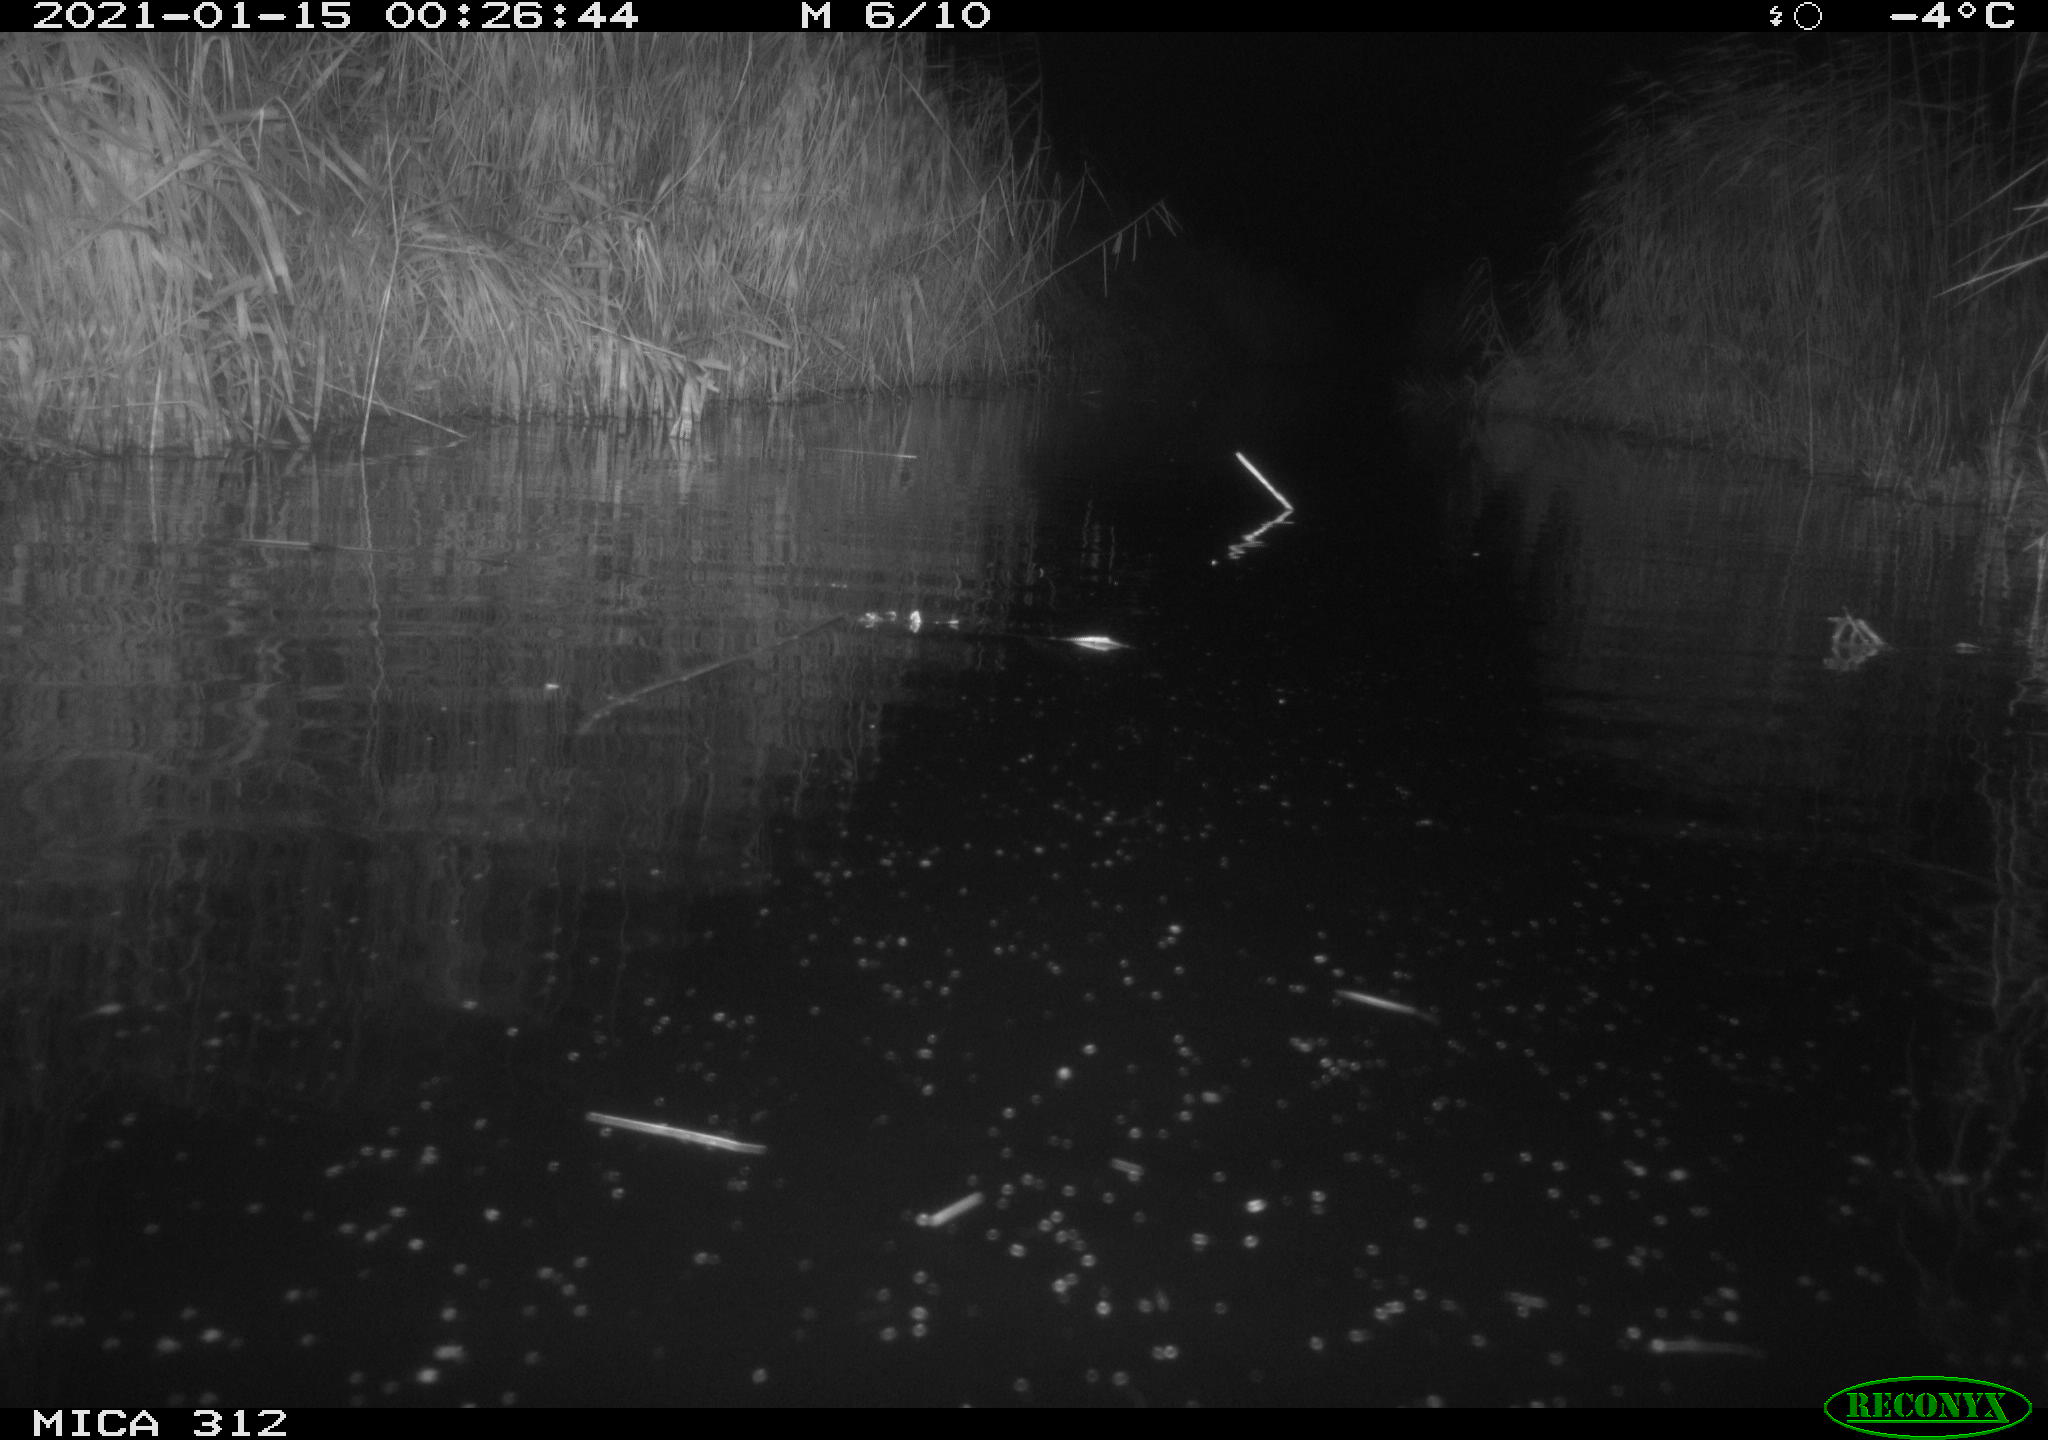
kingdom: Animalia
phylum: Chordata
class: Mammalia
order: Rodentia
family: Cricetidae
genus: Ondatra
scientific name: Ondatra zibethicus
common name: Muskrat
